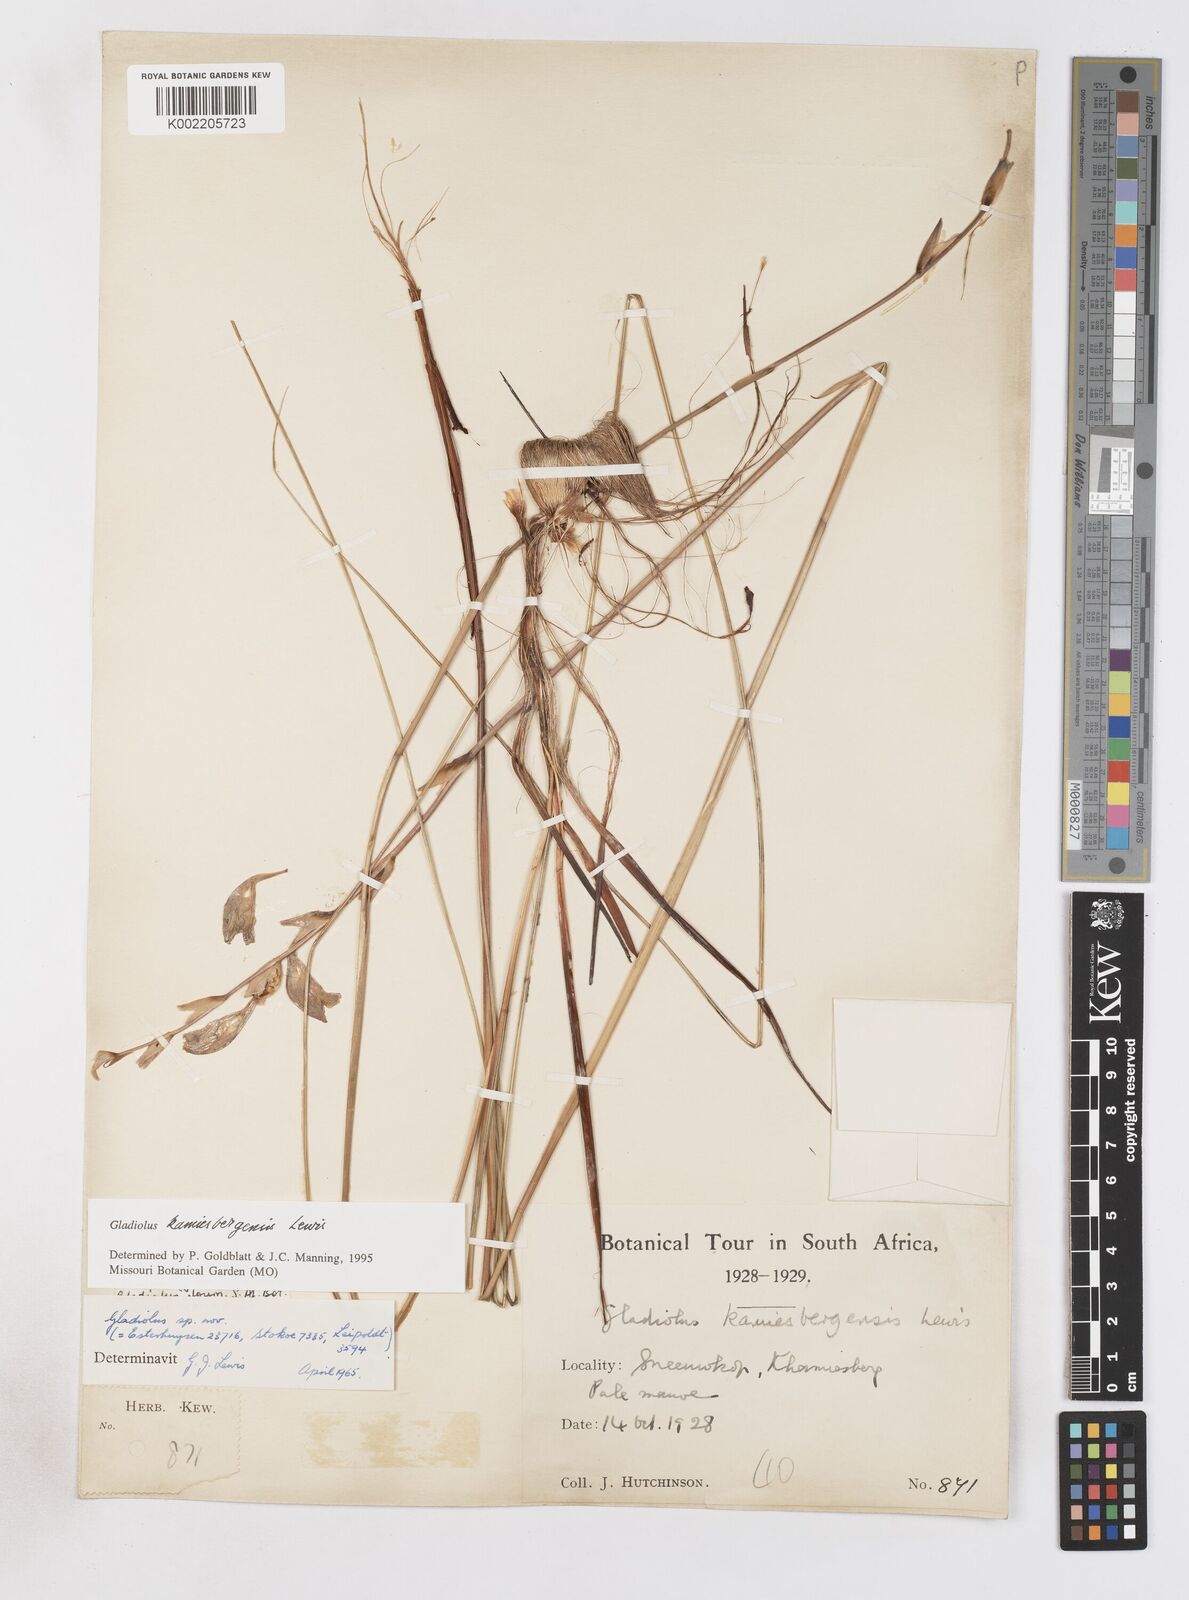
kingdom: Plantae
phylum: Tracheophyta
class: Liliopsida
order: Asparagales
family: Iridaceae
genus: Gladiolus
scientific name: Gladiolus kamiesbergensis
